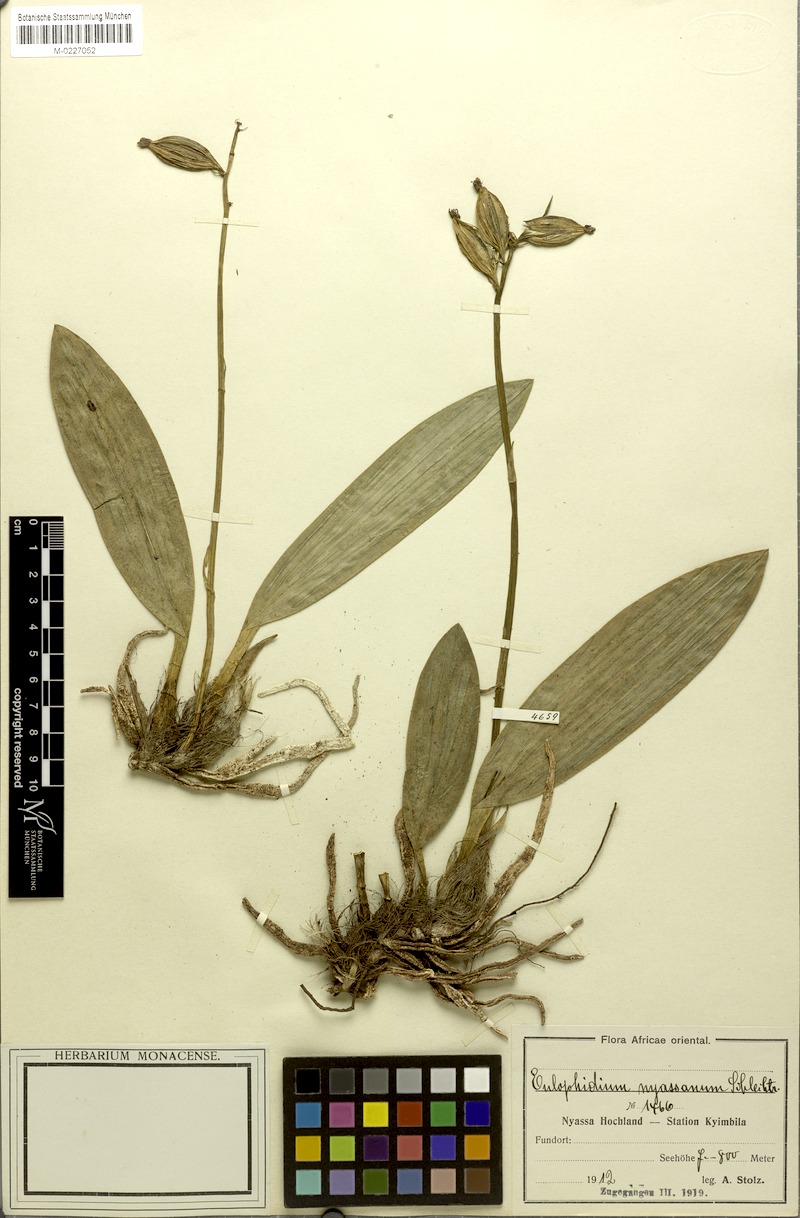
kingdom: Plantae
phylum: Tracheophyta
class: Liliopsida
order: Asparagales
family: Orchidaceae
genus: Eulophia
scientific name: Eulophia maculata
